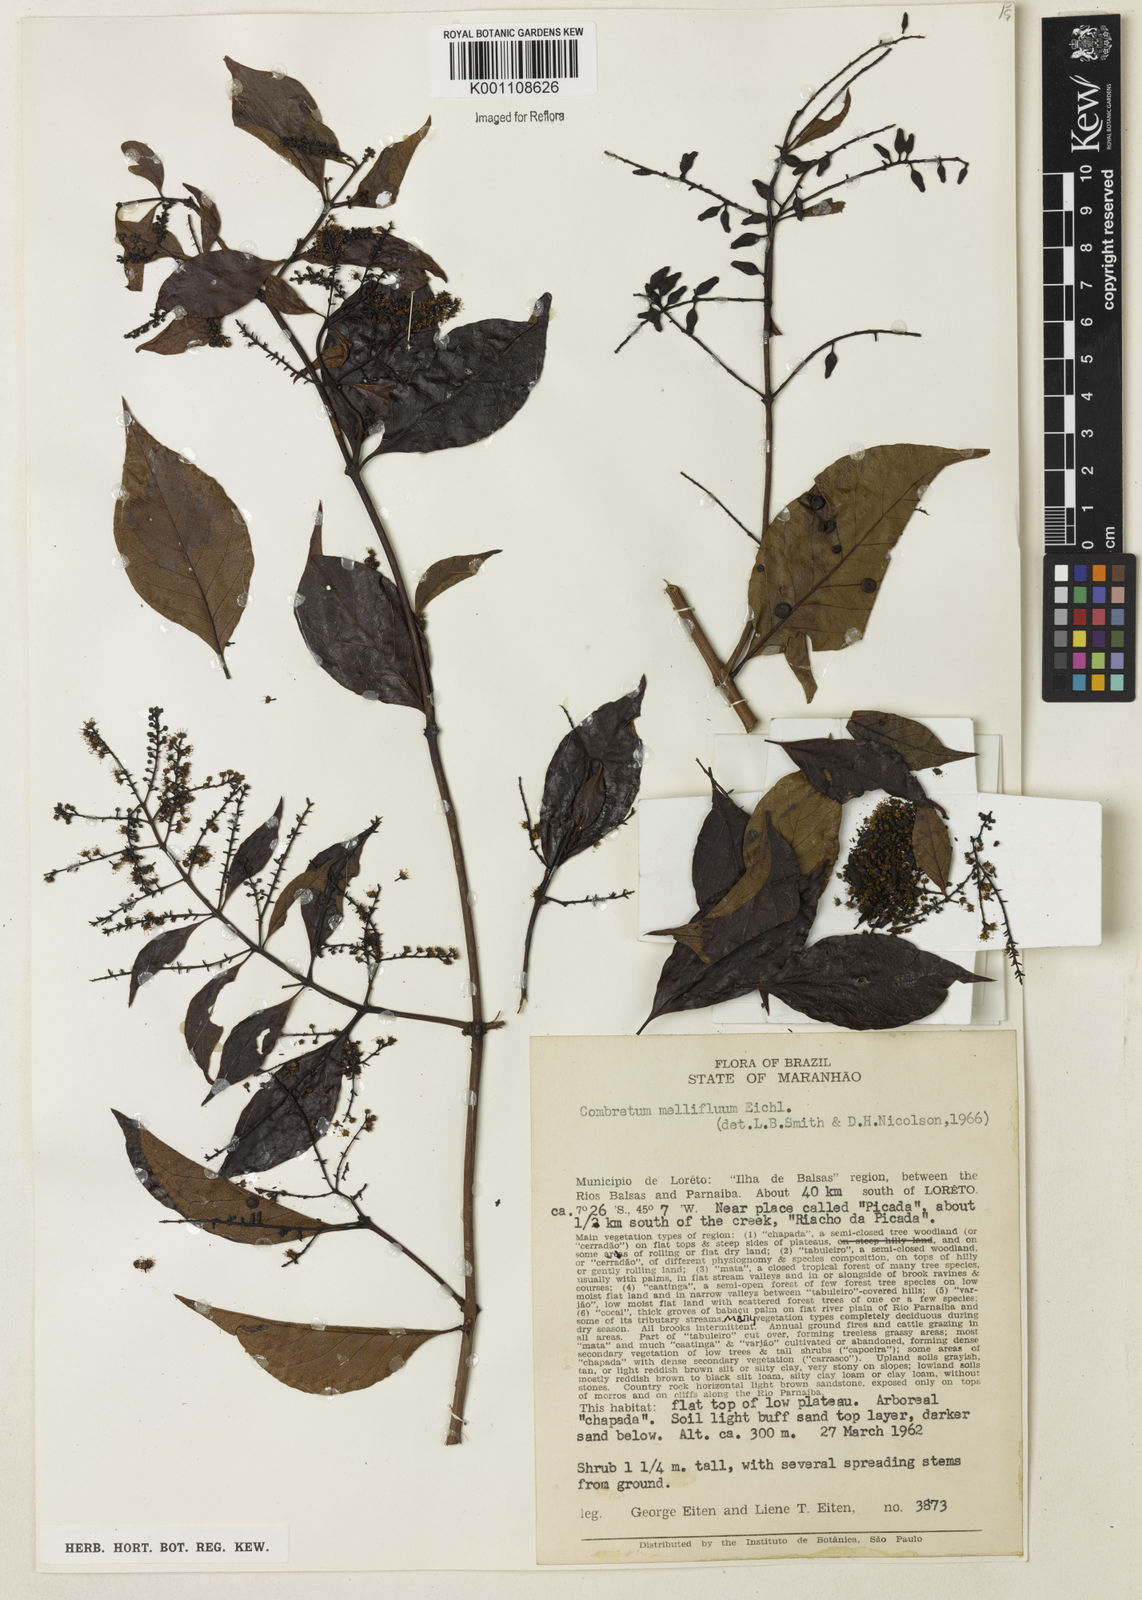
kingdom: Plantae
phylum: Tracheophyta
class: Magnoliopsida
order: Myrtales
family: Combretaceae
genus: Combretum
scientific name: Combretum mellifluum
